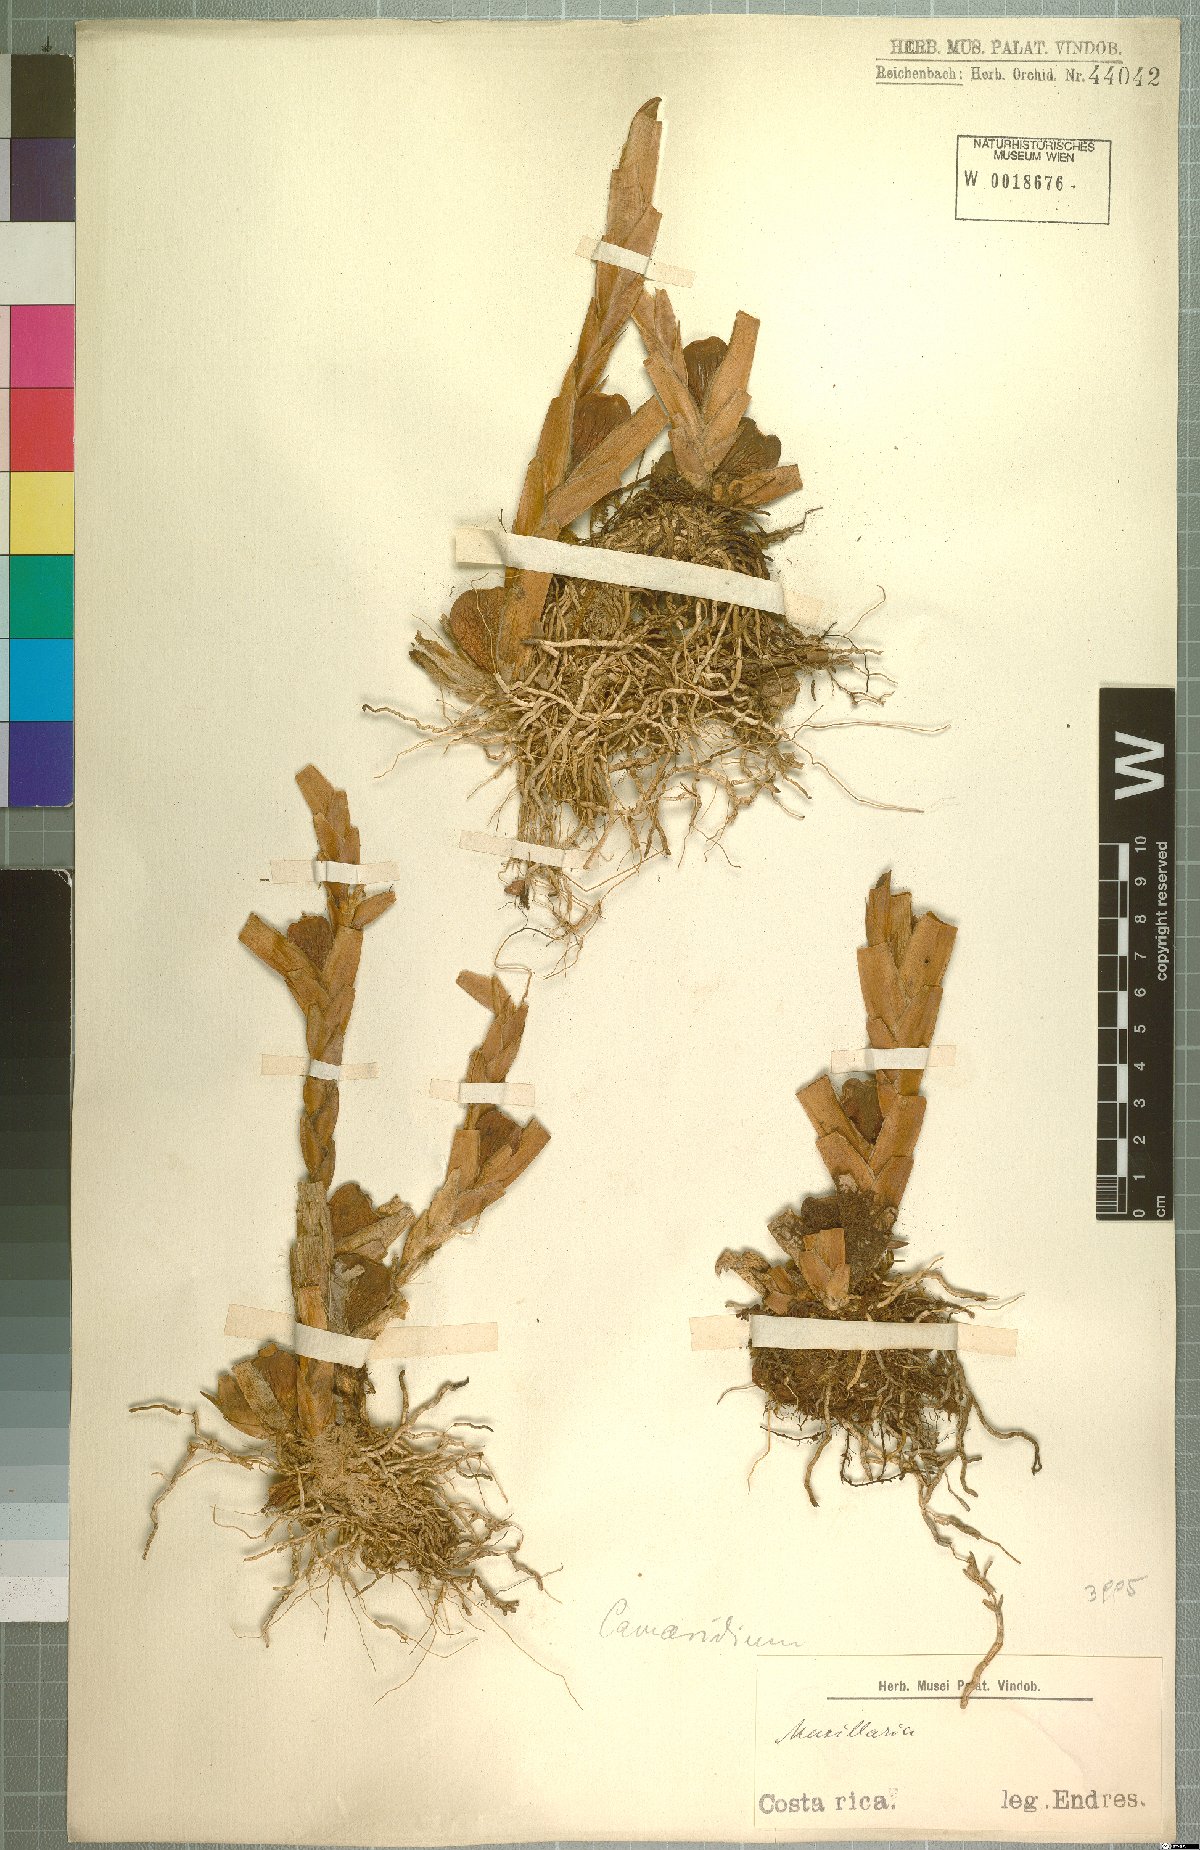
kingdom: Plantae
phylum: Tracheophyta
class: Liliopsida
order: Asparagales
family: Orchidaceae
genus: Maxillaria
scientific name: Maxillaria
